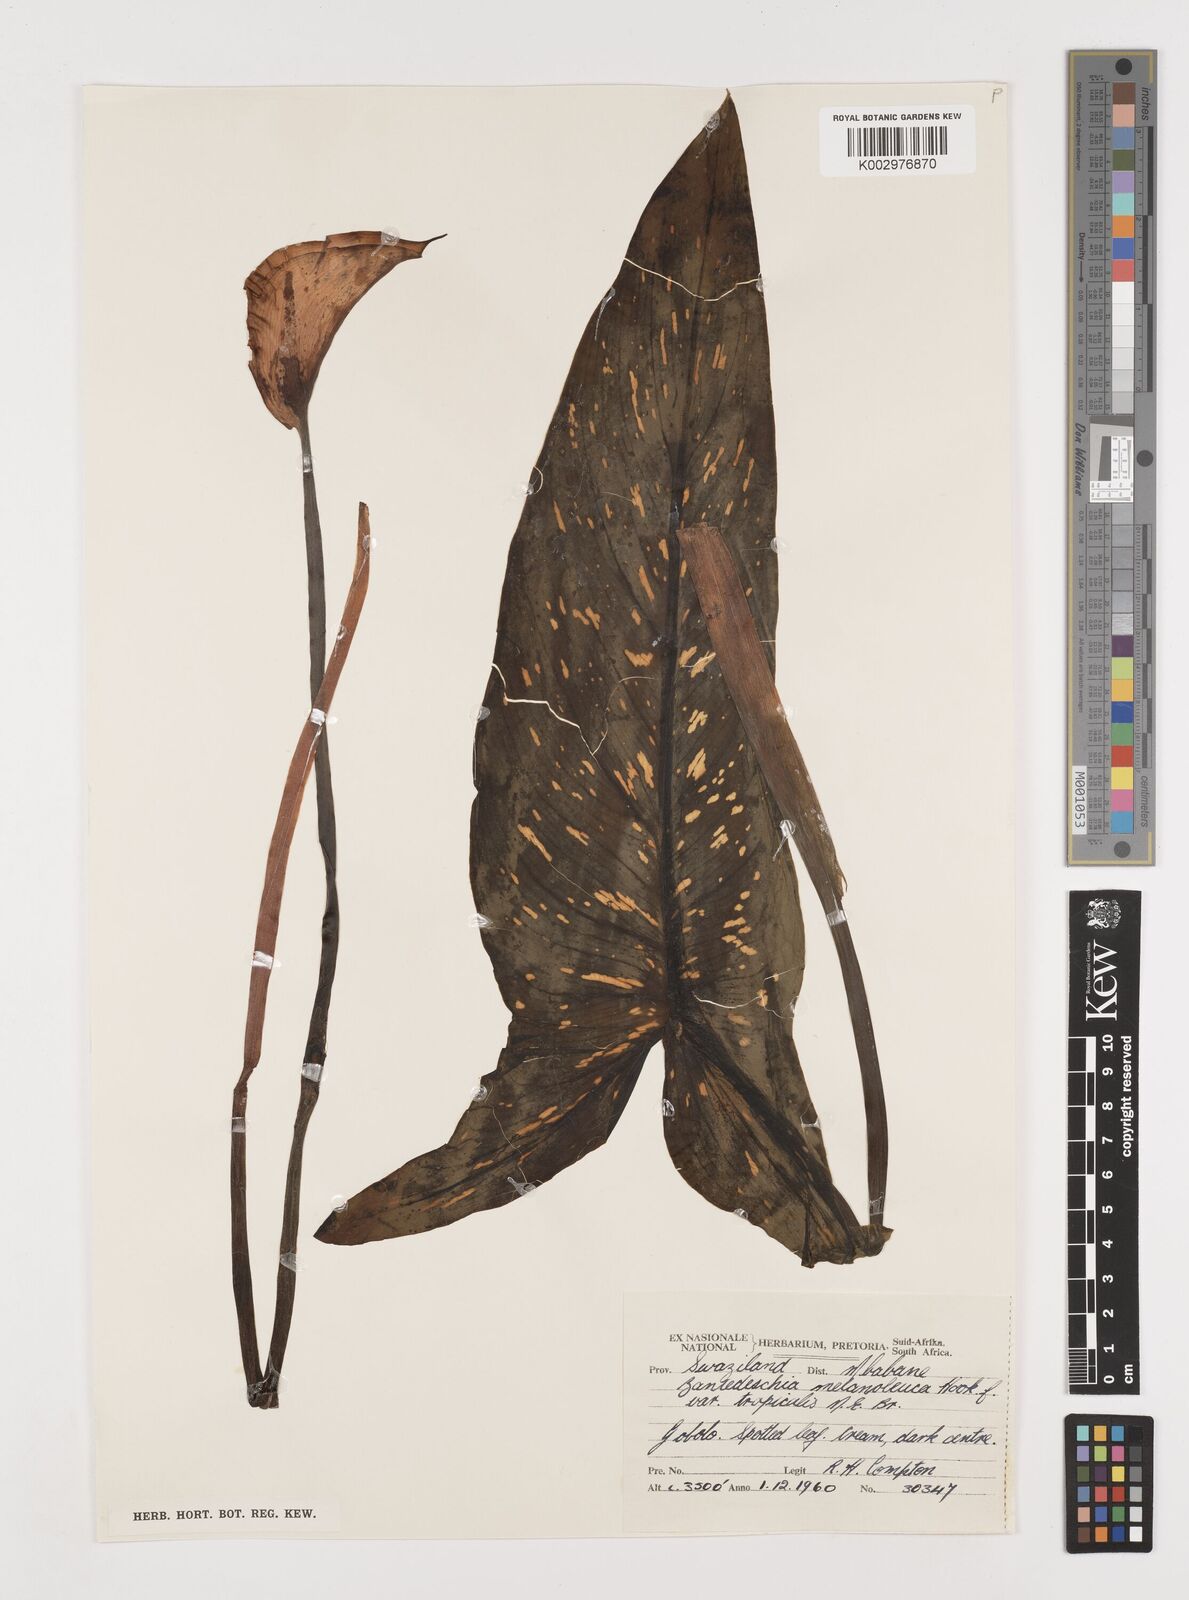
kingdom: Plantae
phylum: Tracheophyta
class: Liliopsida
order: Alismatales
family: Araceae
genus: Zantedeschia
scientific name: Zantedeschia albomaculata
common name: Spotted calla lily
